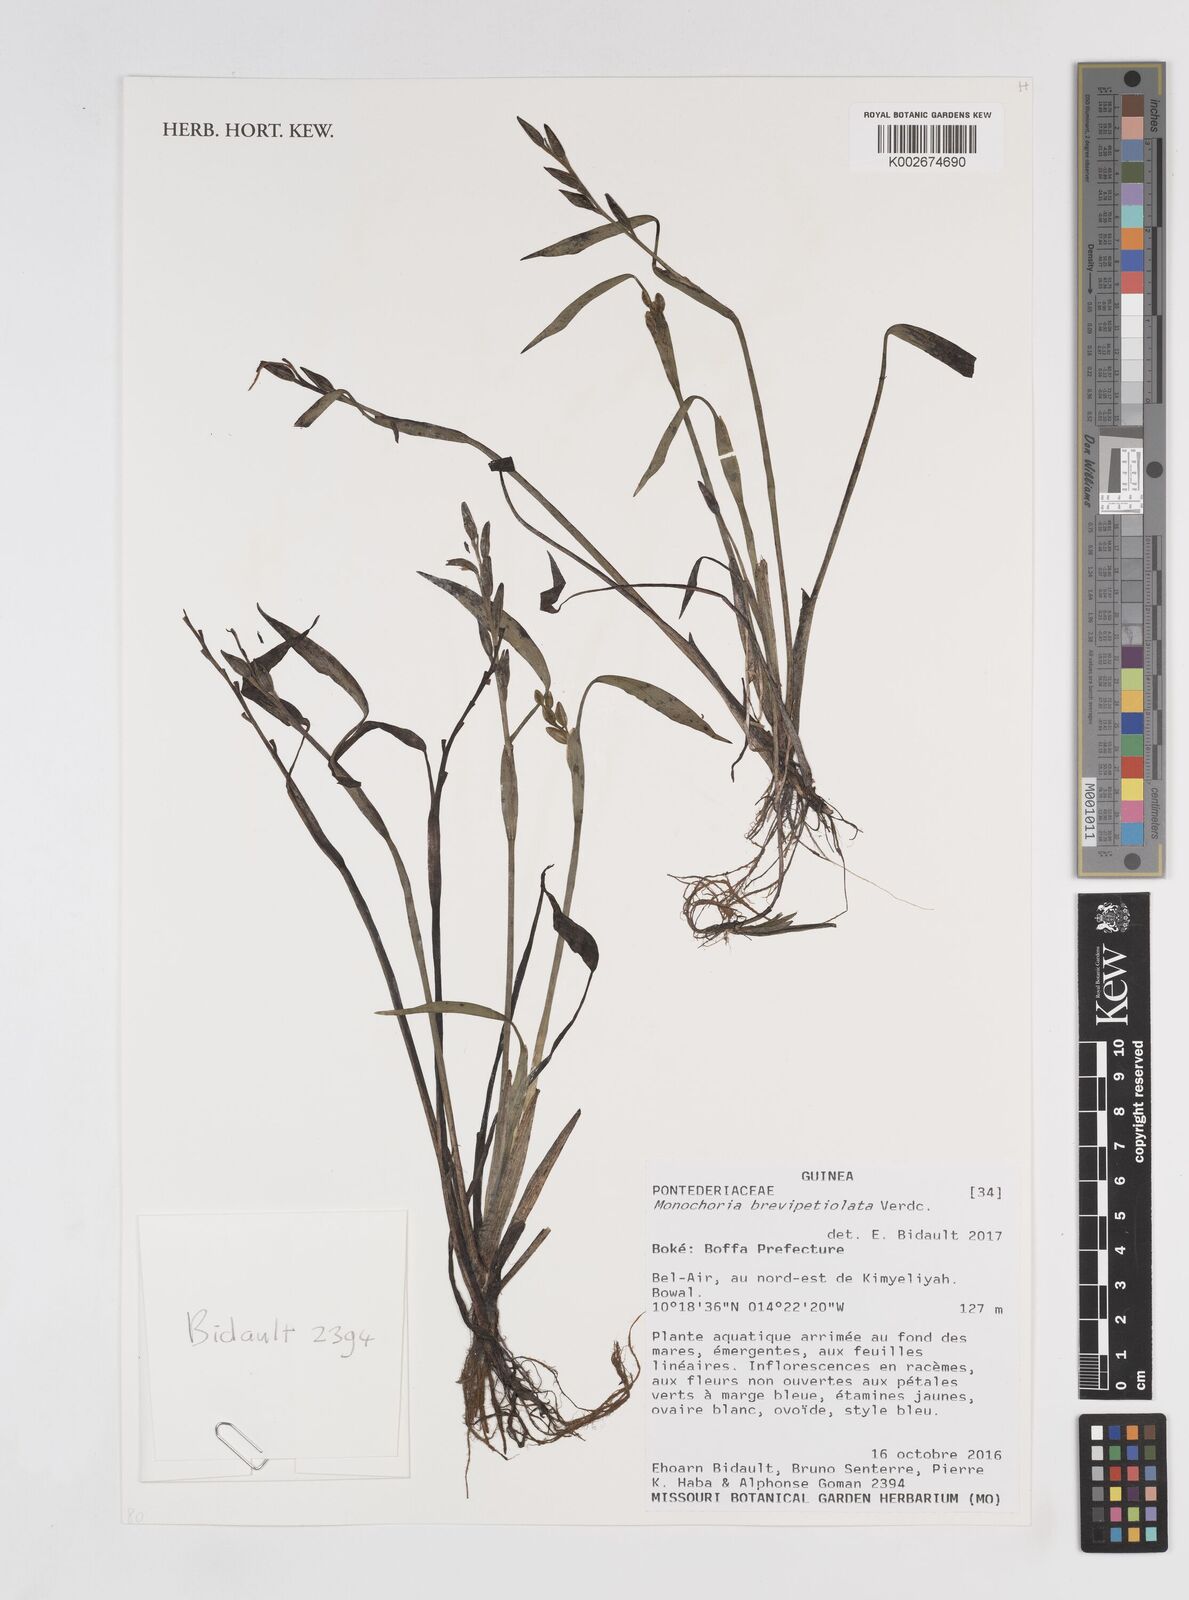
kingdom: Plantae
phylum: Tracheophyta
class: Liliopsida
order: Commelinales
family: Pontederiaceae
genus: Pontederia
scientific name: Pontederia brevipetiolata
